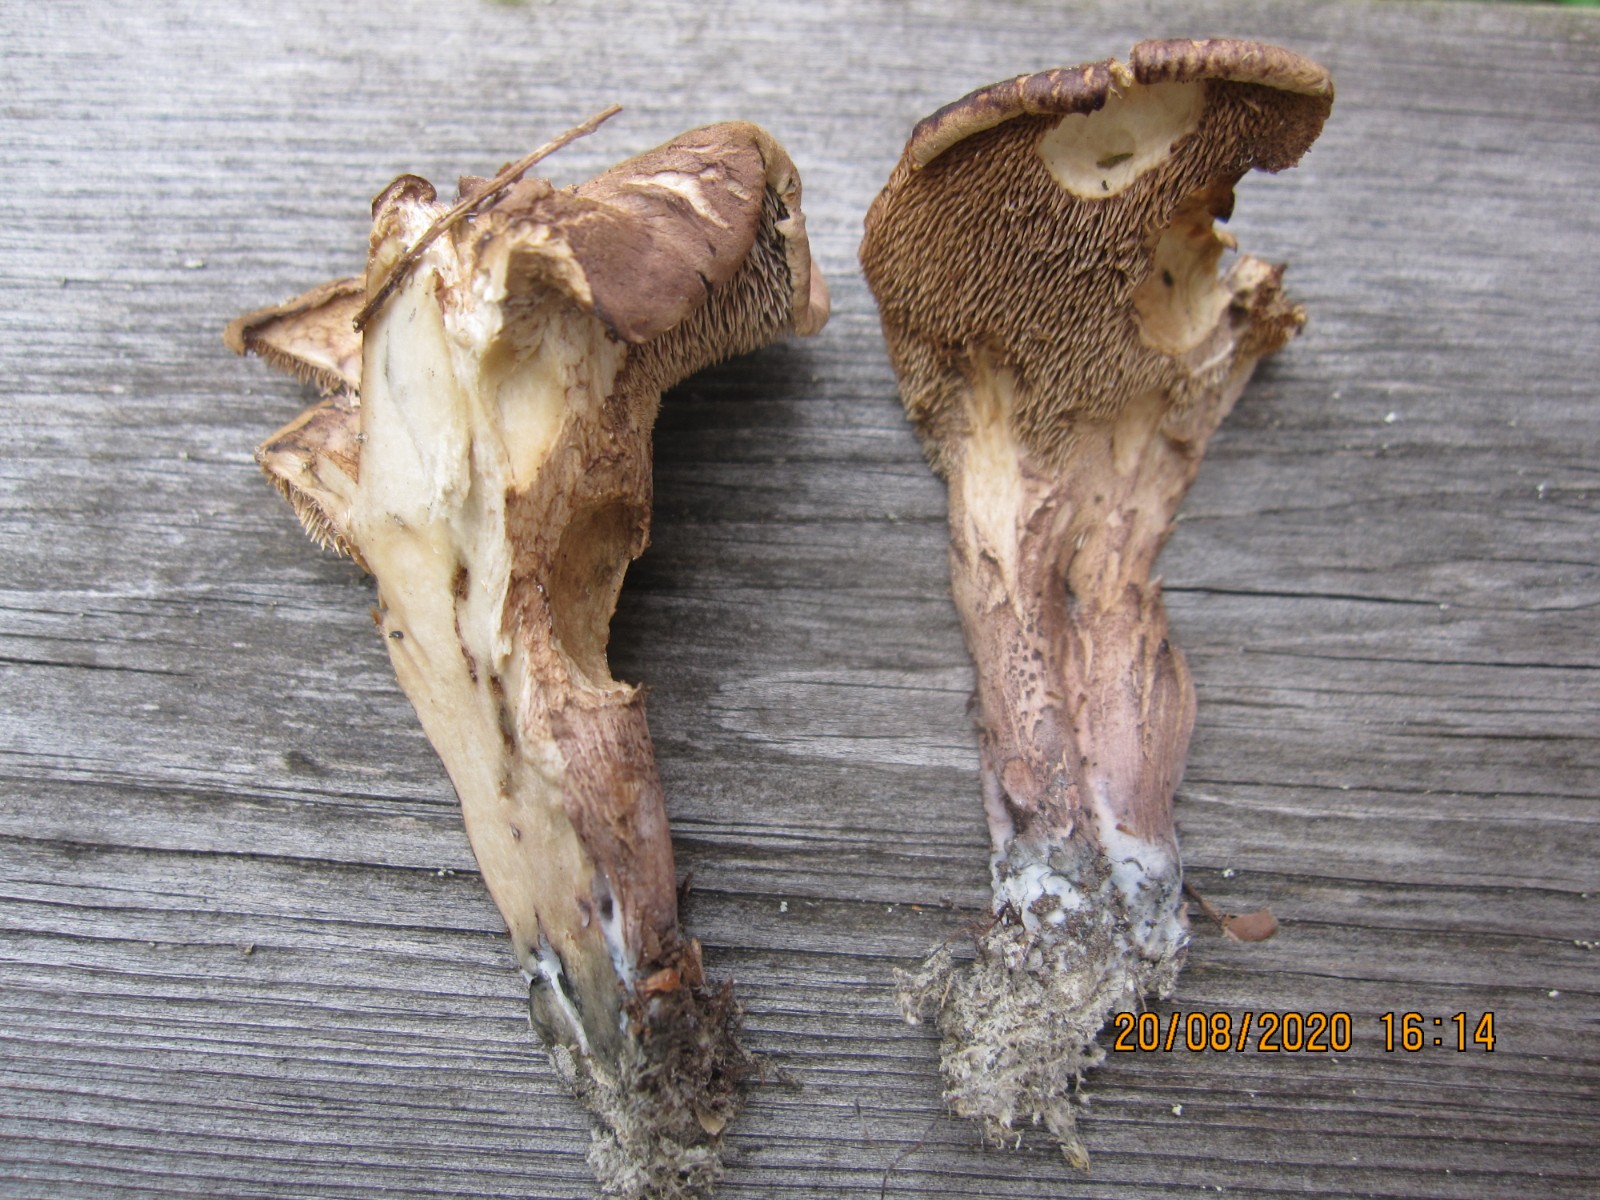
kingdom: Fungi
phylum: Basidiomycota
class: Agaricomycetes
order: Thelephorales
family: Bankeraceae
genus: Hydnellum
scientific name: Hydnellum lepidum
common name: skrænt-korkpigsvamp
